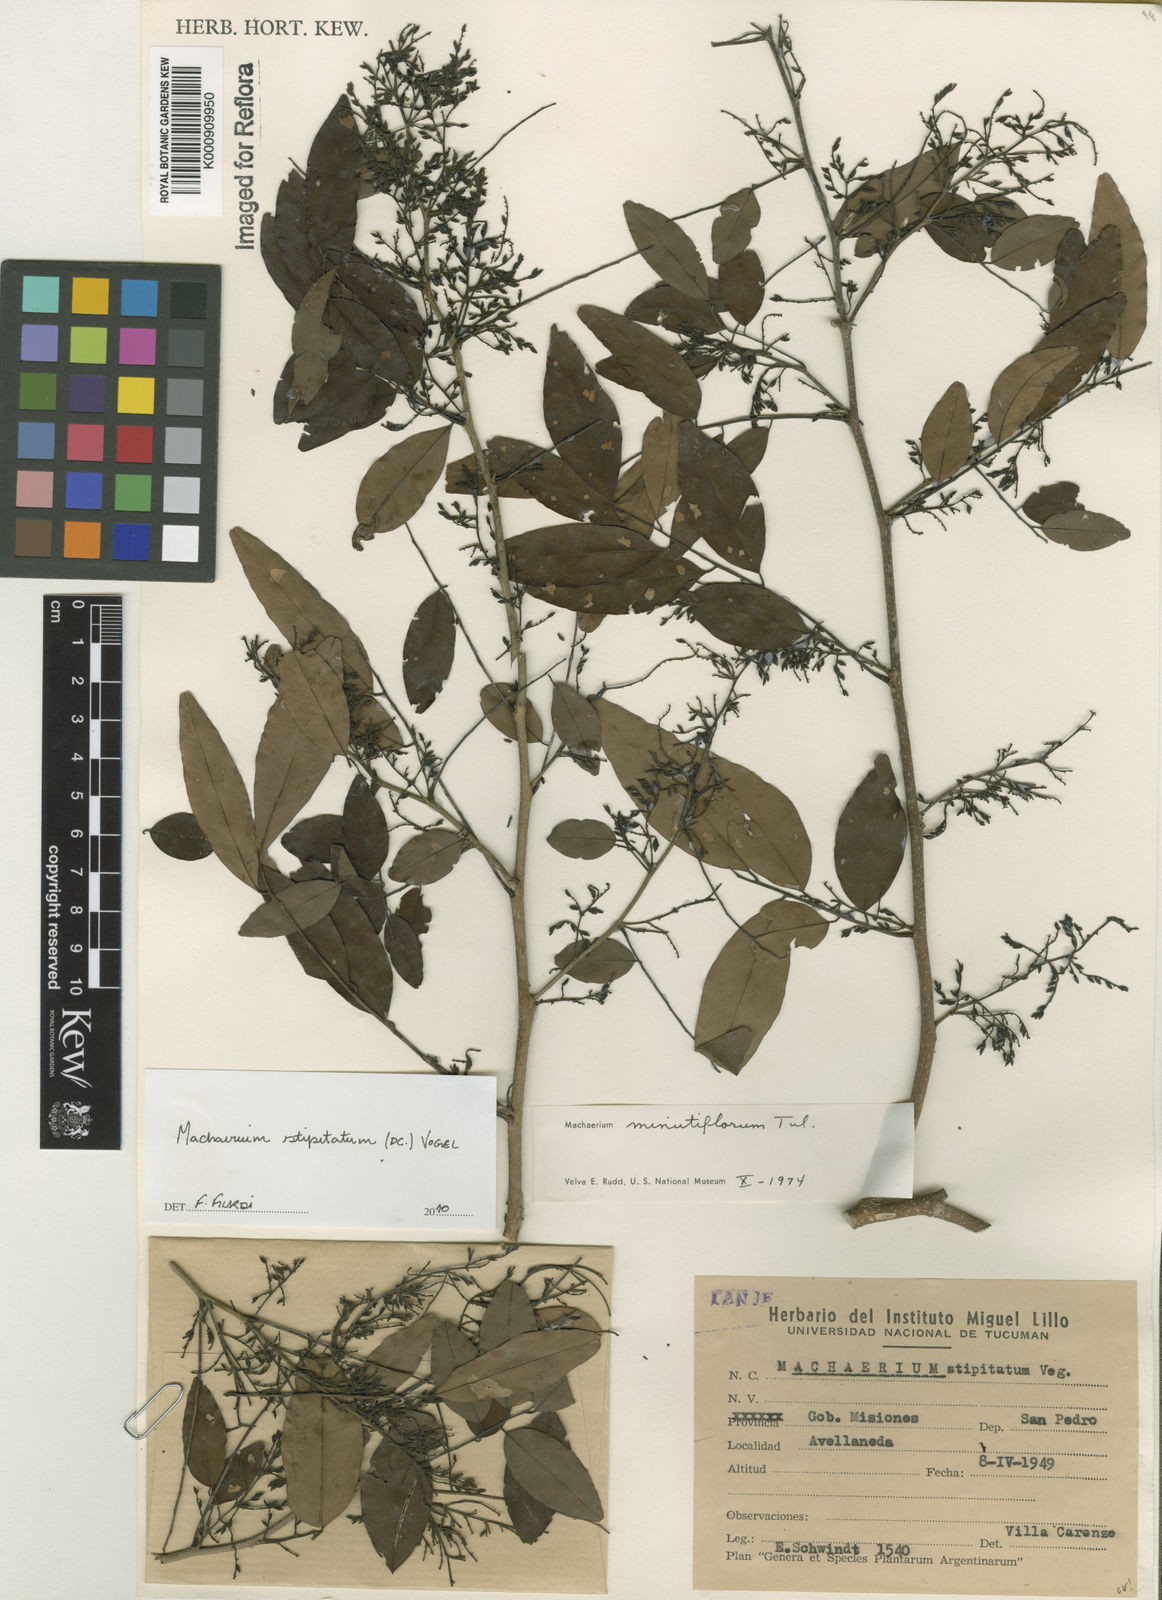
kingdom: Plantae
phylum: Tracheophyta
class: Magnoliopsida
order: Fabales
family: Fabaceae
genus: Machaerium
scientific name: Machaerium stipitatum
